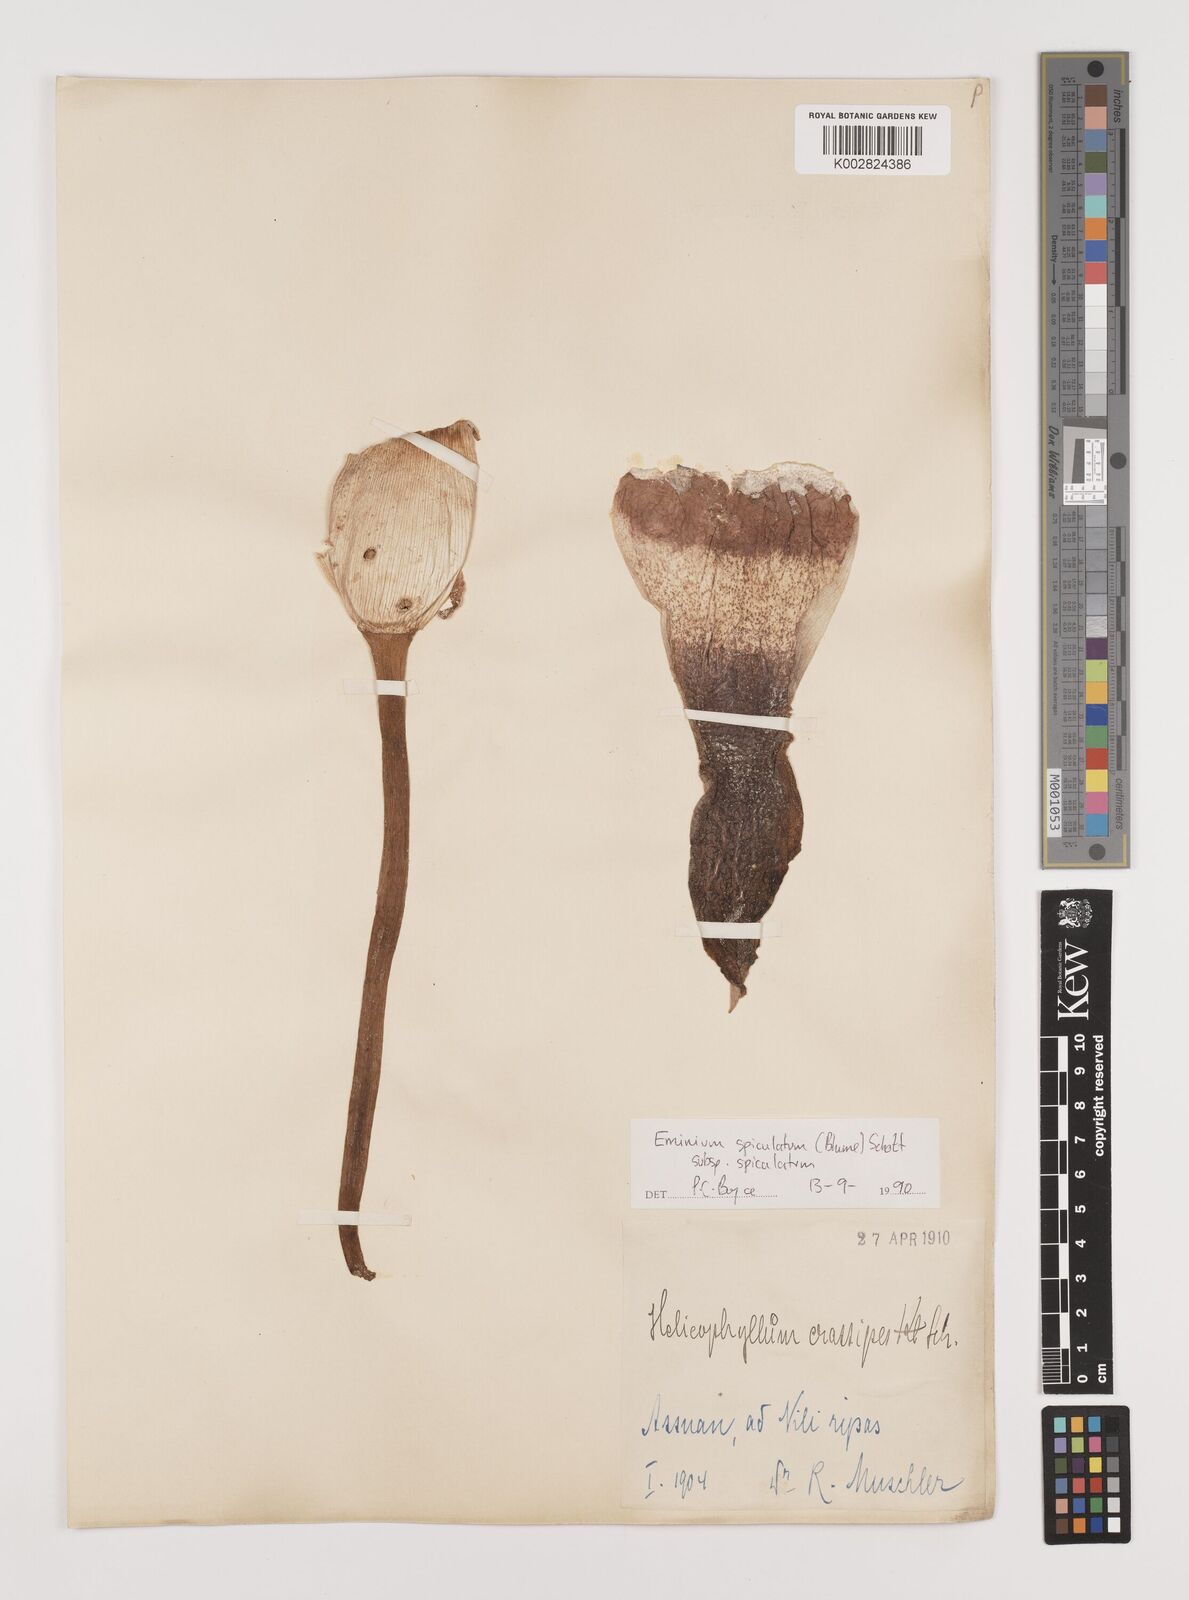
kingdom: Plantae
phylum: Tracheophyta
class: Liliopsida
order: Alismatales
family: Araceae
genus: Eminium
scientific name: Eminium spiculatum
